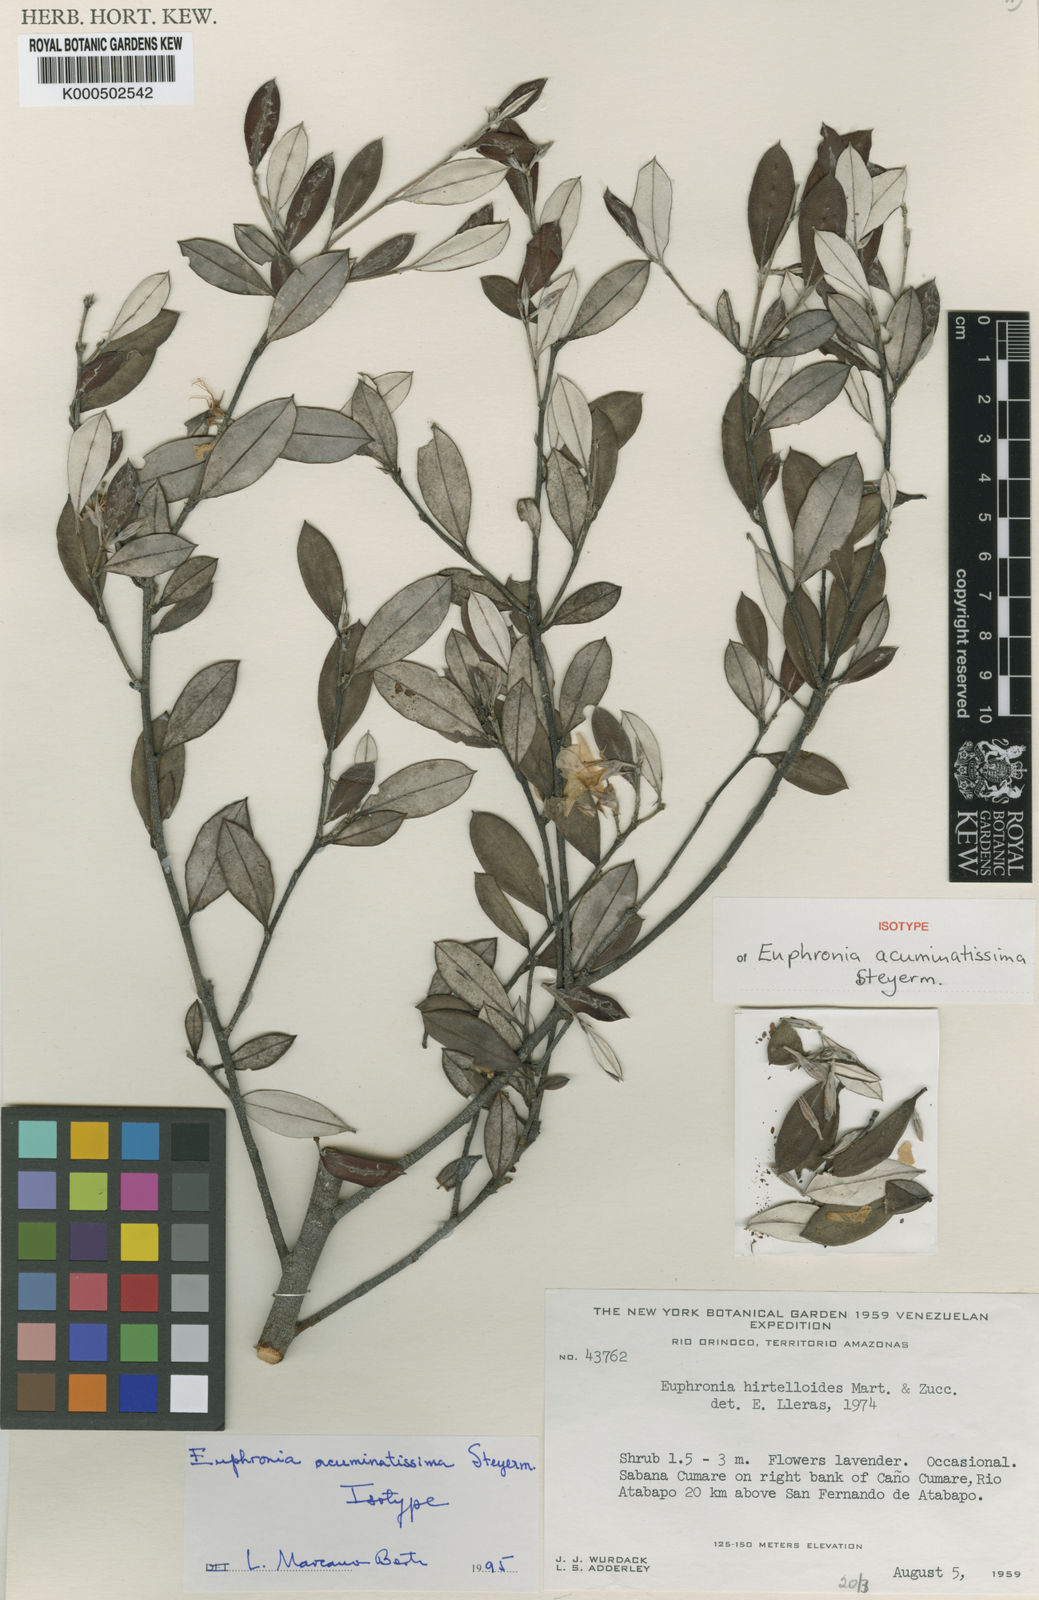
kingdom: Plantae
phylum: Tracheophyta
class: Magnoliopsida
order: Malpighiales
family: Euphroniaceae
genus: Euphronia
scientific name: Euphronia acuminatissima
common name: Acuminate euphronia
